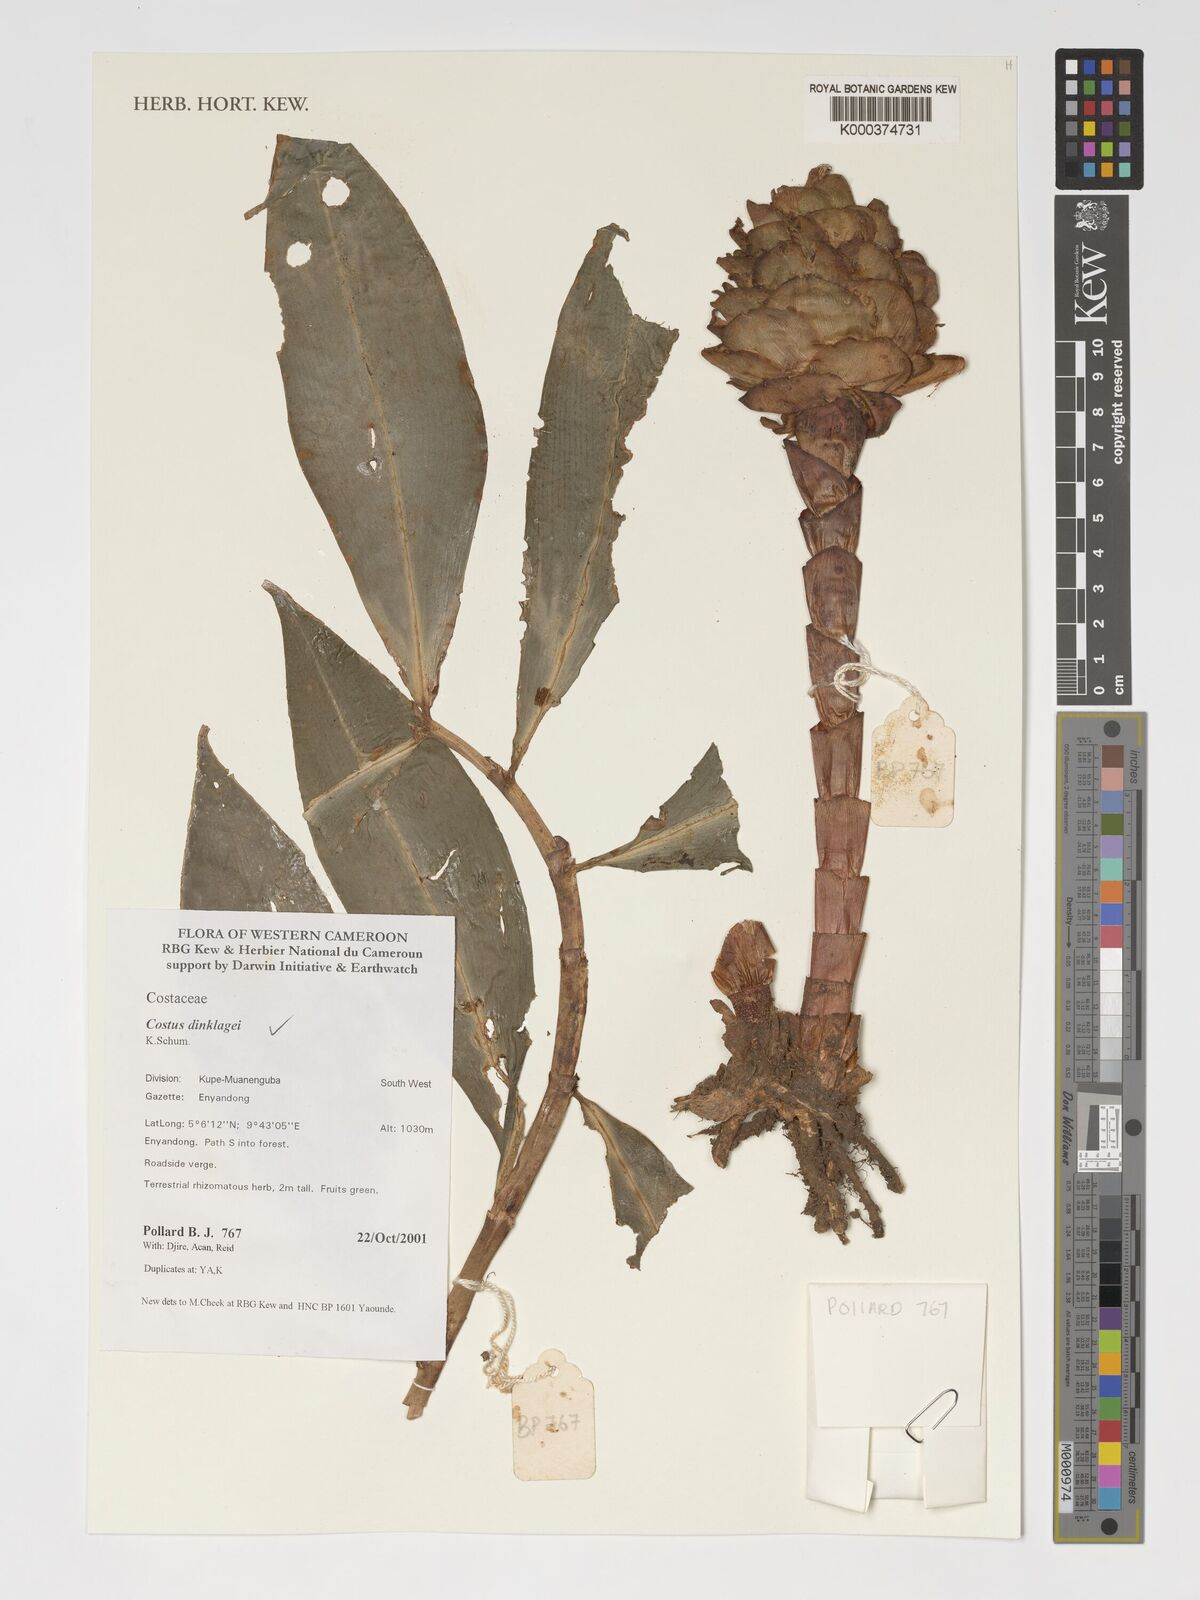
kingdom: Plantae
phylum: Tracheophyta
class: Liliopsida
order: Zingiberales
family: Costaceae
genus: Costus
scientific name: Costus dinklagei
